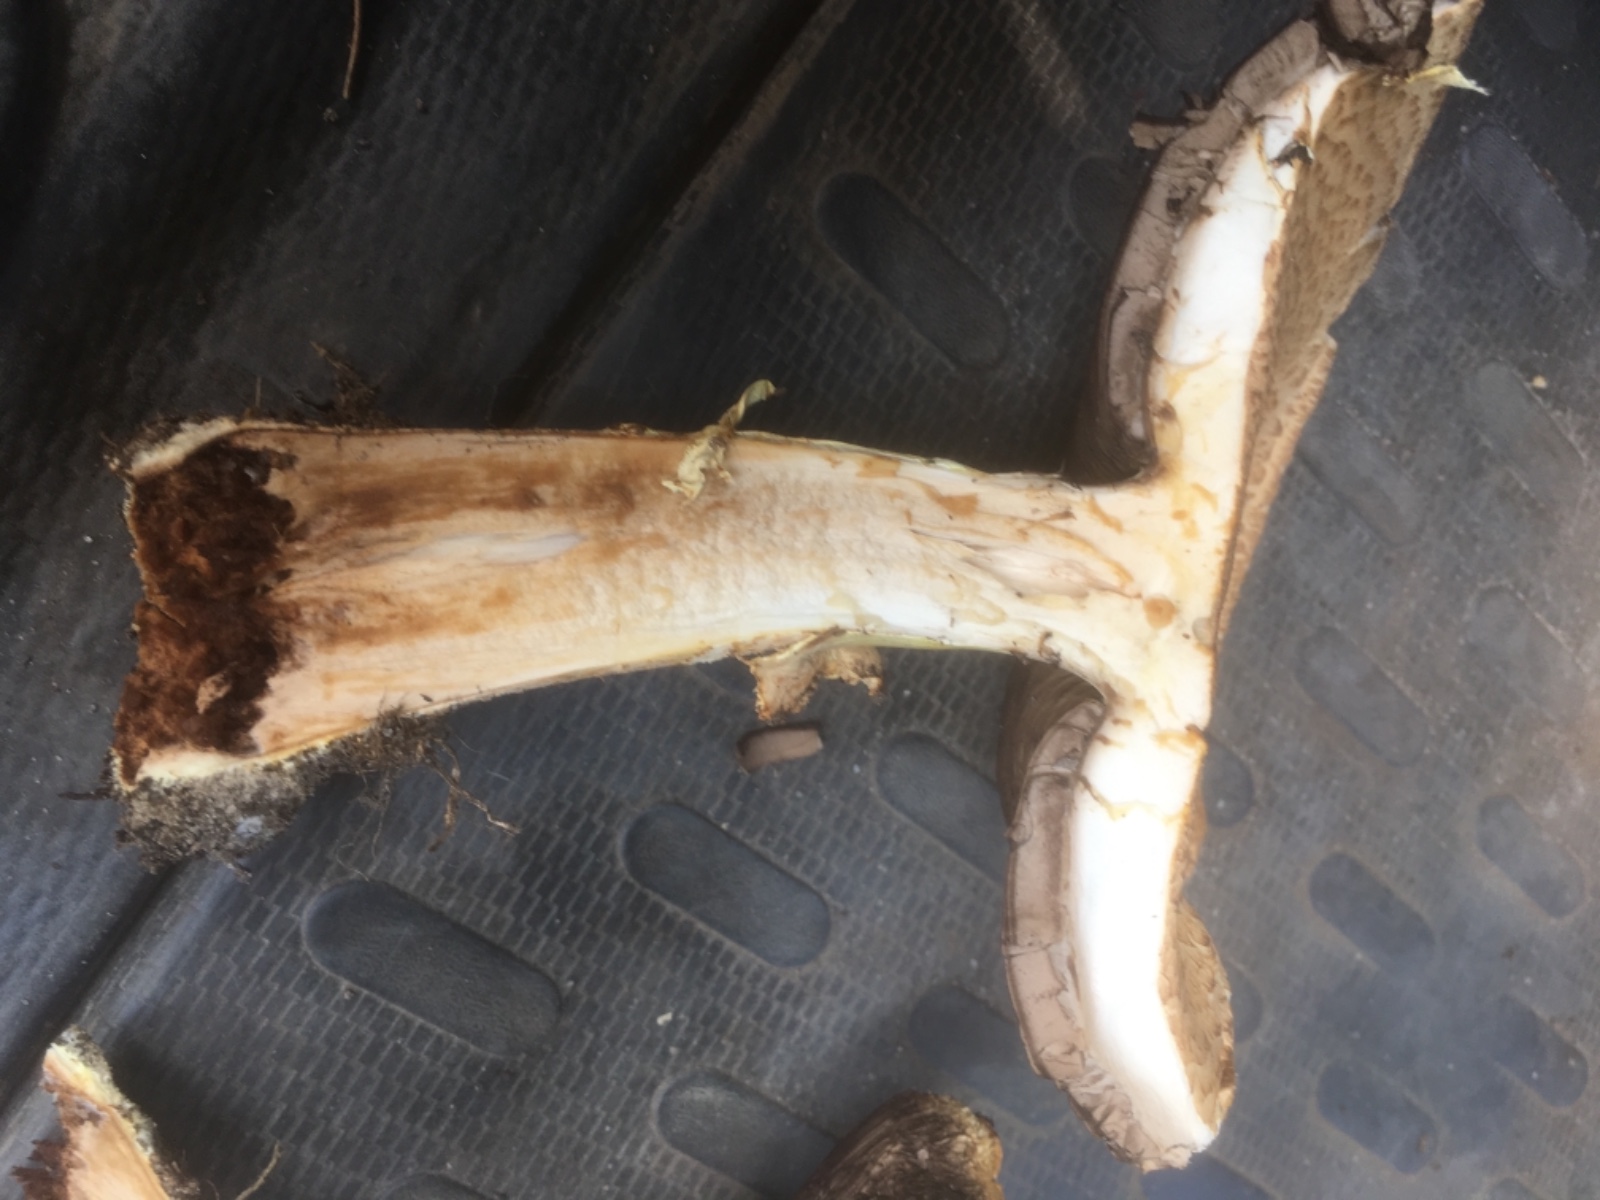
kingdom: Fungi
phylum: Basidiomycota
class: Agaricomycetes
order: Agaricales
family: Agaricaceae
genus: Agaricus
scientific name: Agaricus augustus
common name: prægtig champignon
